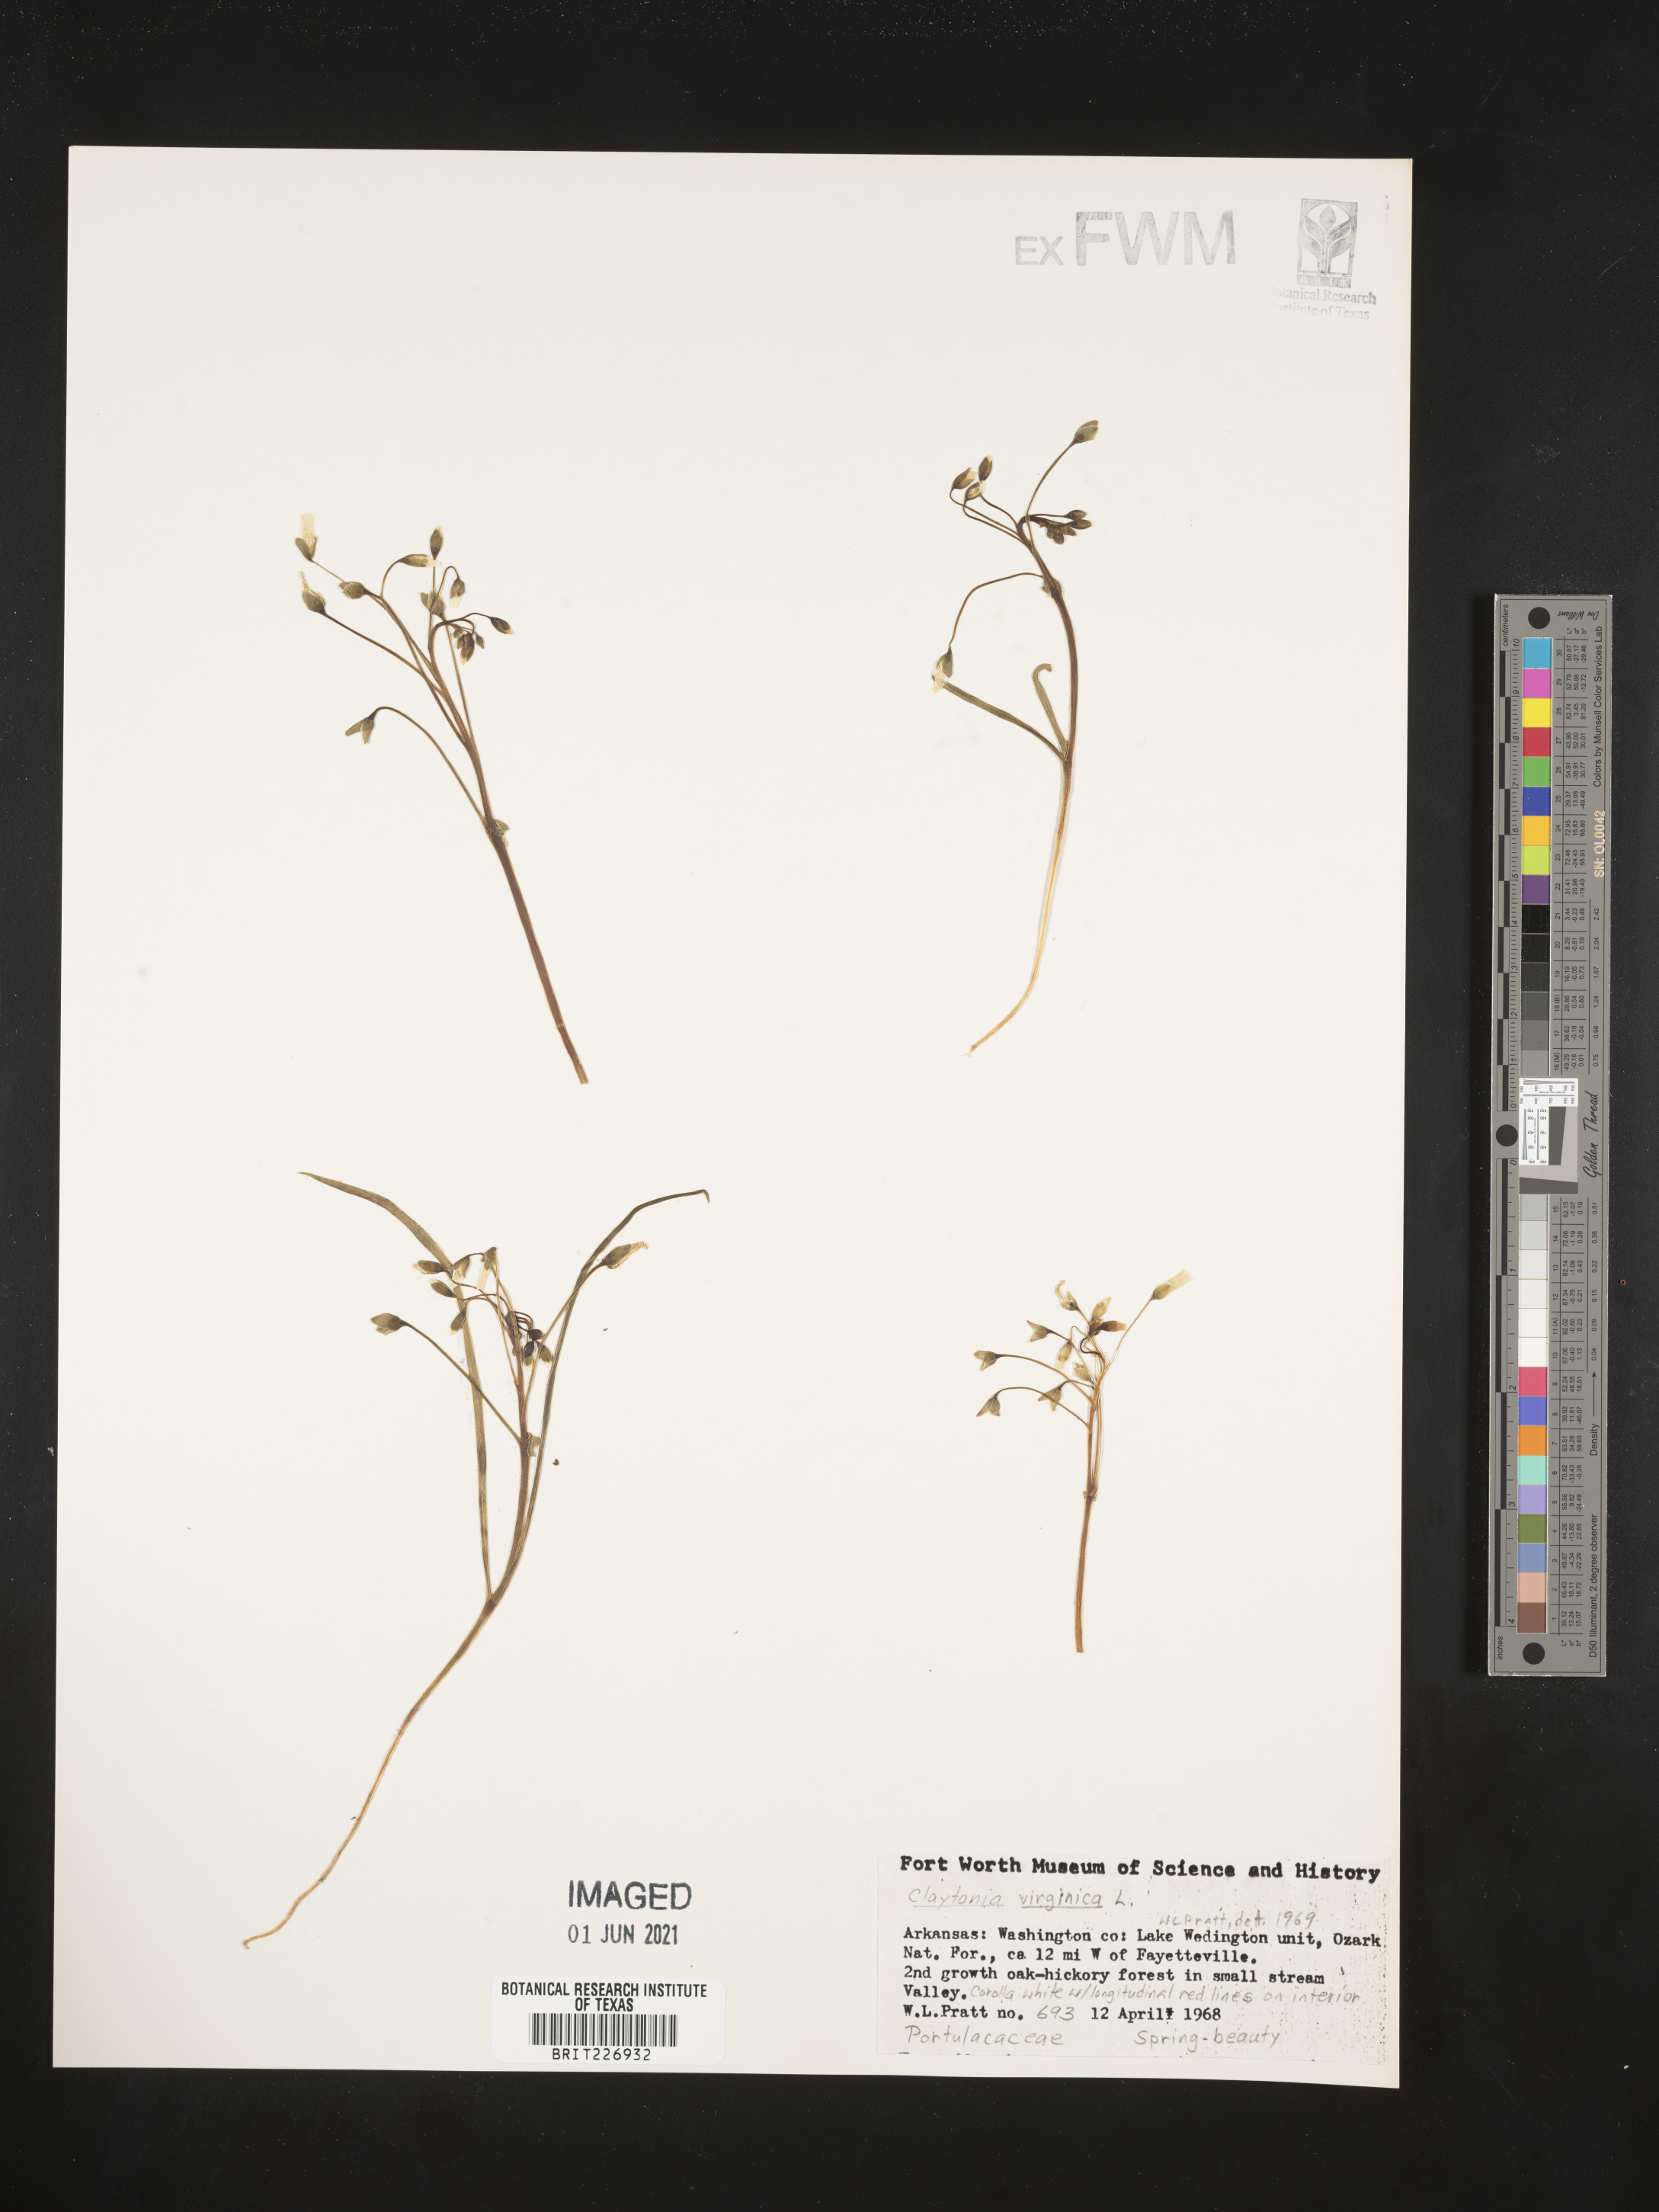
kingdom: Plantae
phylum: Tracheophyta
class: Magnoliopsida
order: Caryophyllales
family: Montiaceae
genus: Claytonia
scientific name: Claytonia virginica
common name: Virginia springbeauty
